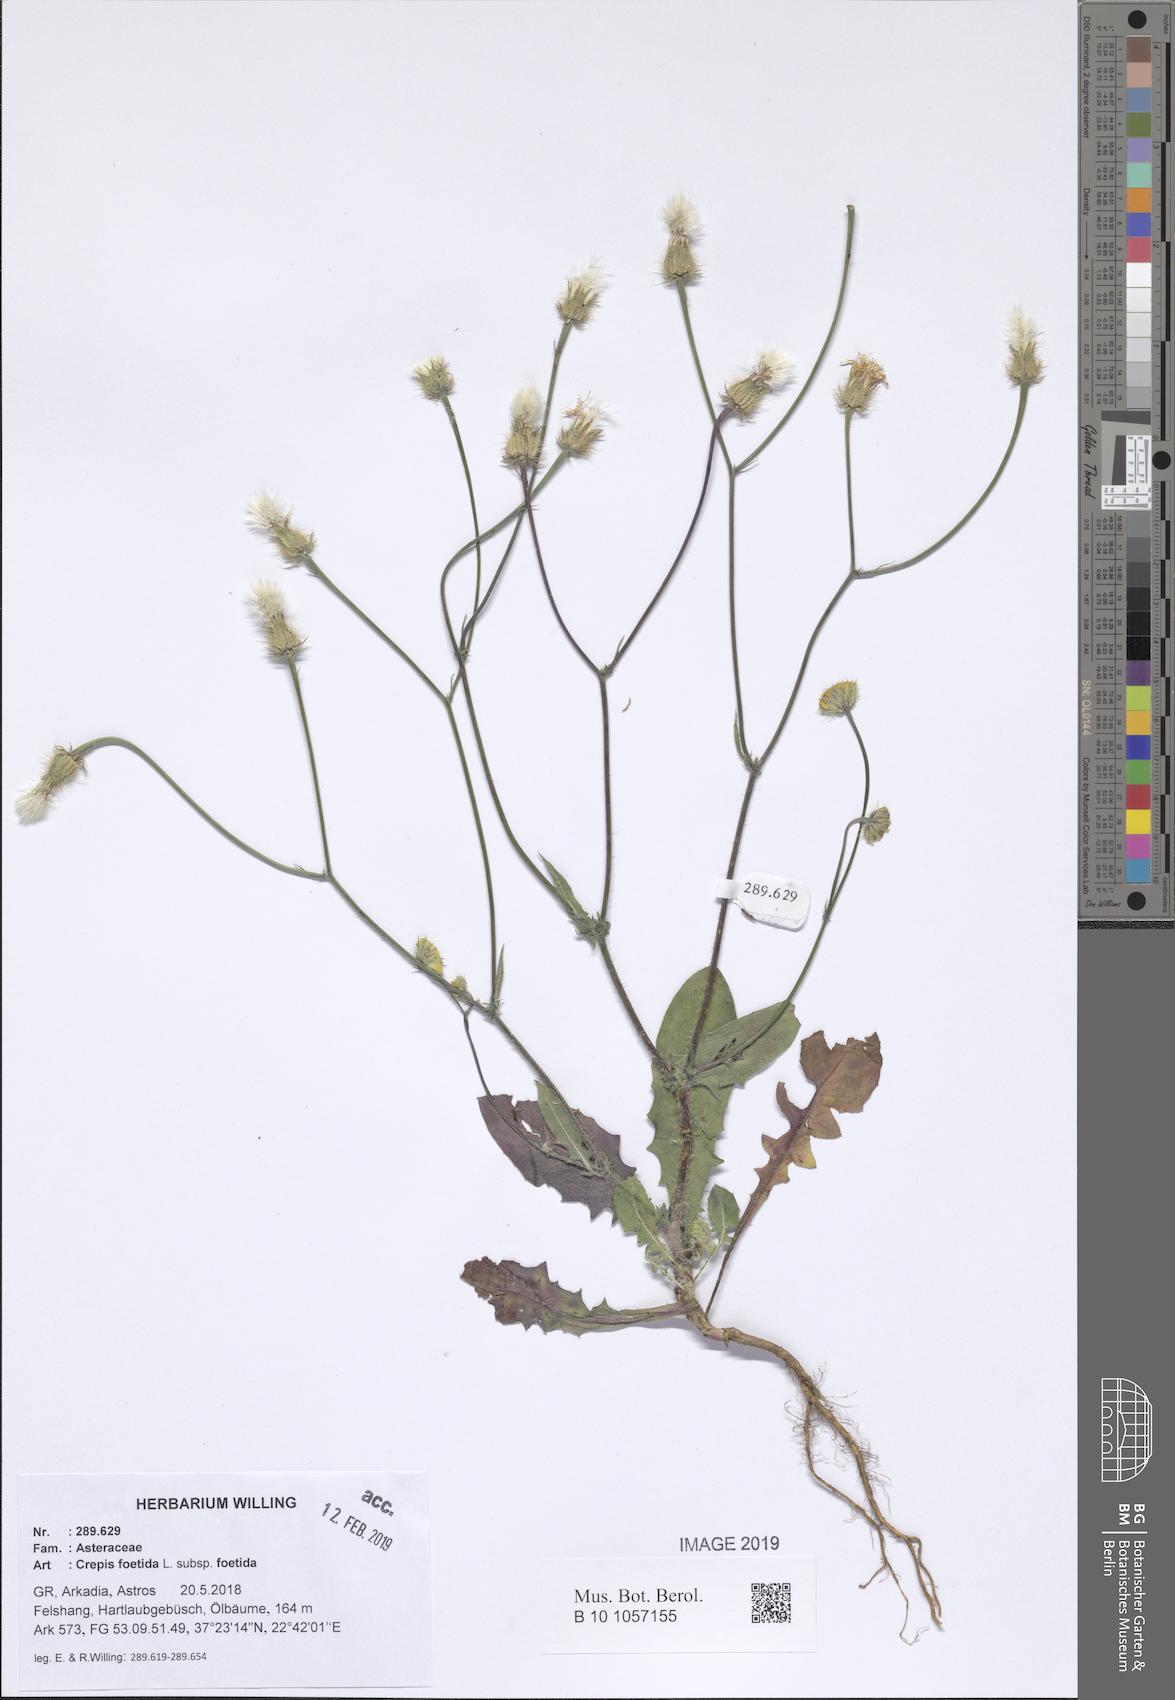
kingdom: Plantae
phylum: Tracheophyta
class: Magnoliopsida
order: Asterales
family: Asteraceae
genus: Crepis
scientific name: Crepis foetida
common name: Stinking hawk's-beard
